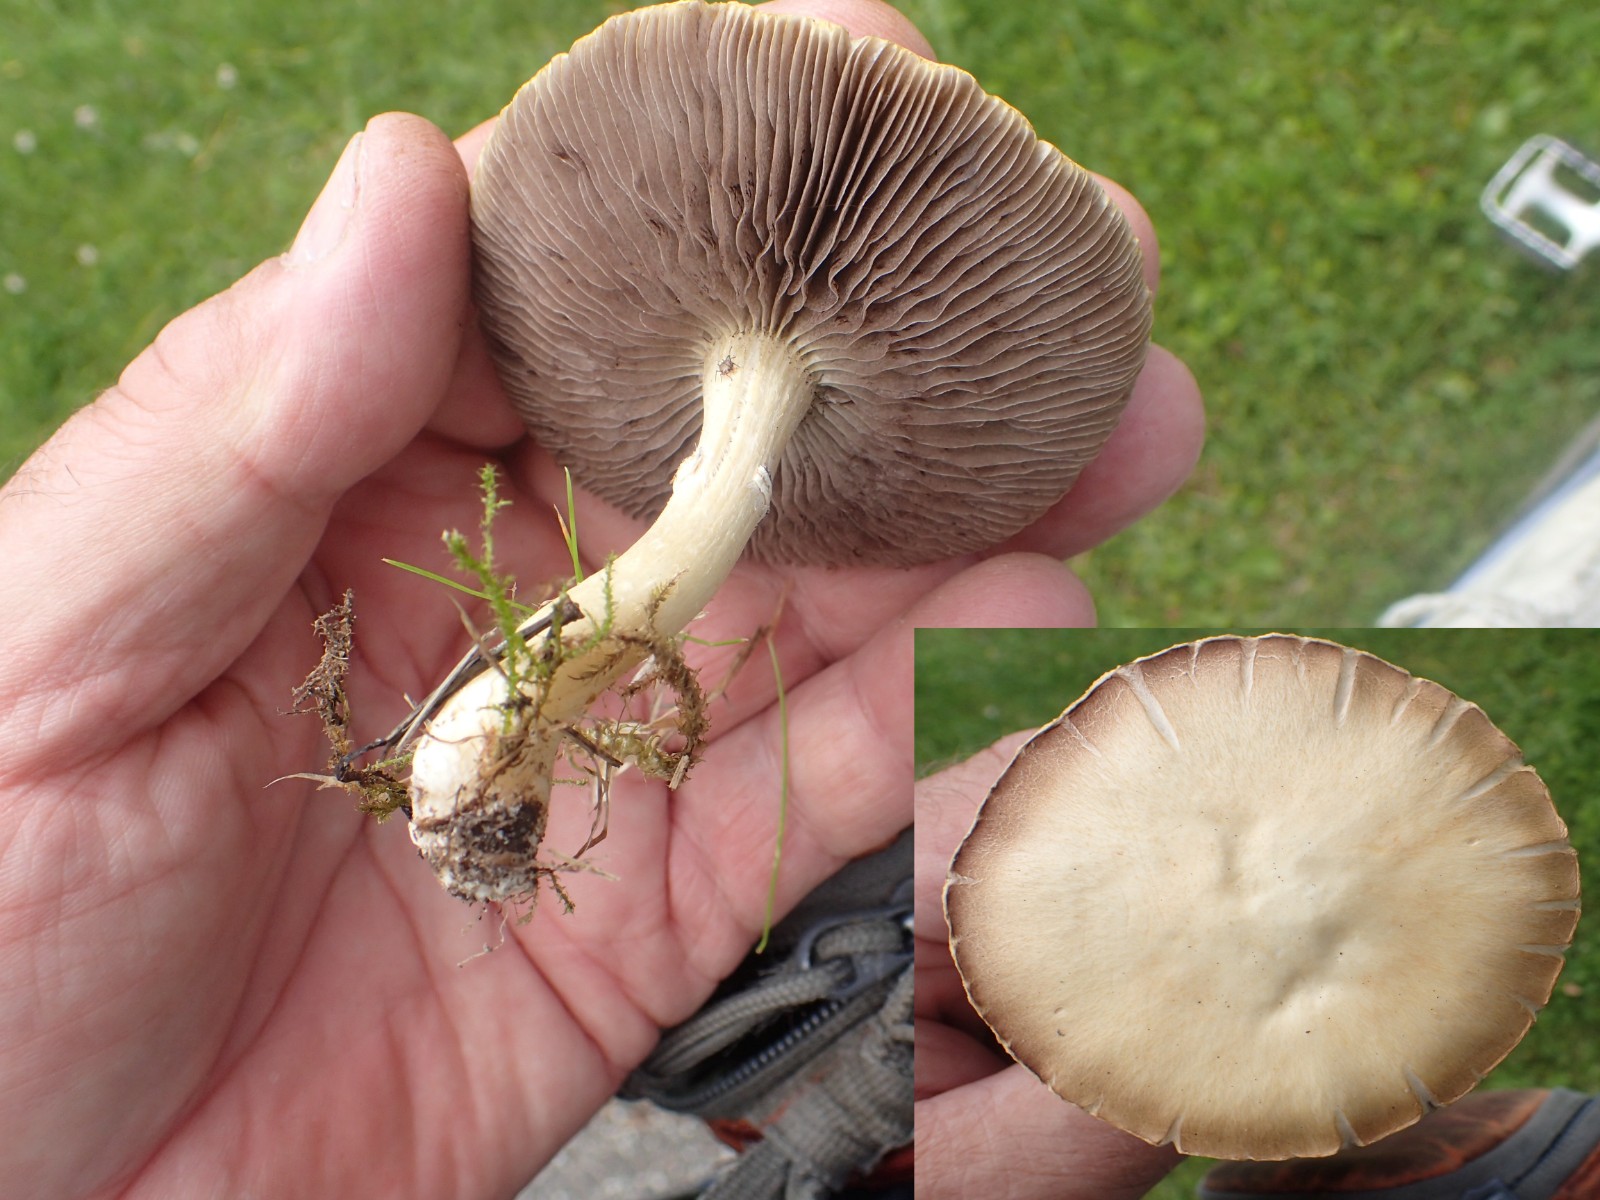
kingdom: Fungi
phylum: Basidiomycota
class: Agaricomycetes
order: Agaricales
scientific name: Agaricales
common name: champignonordenen
